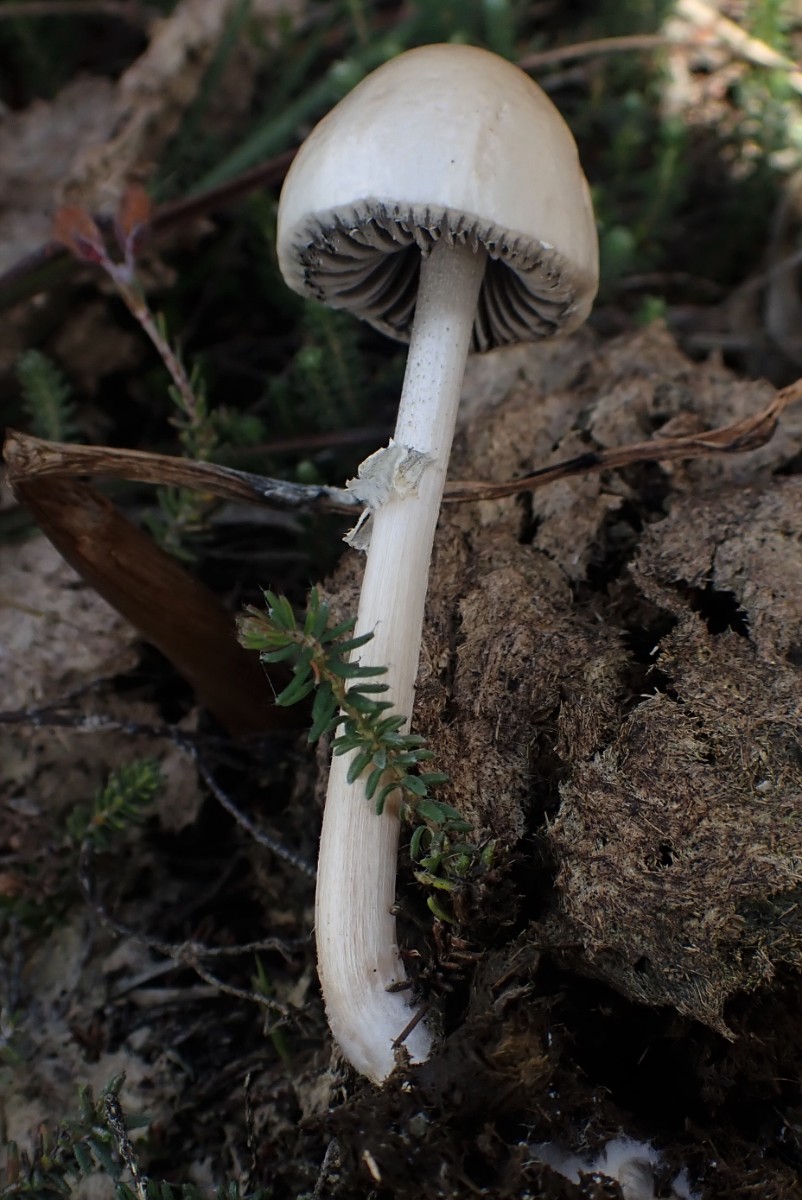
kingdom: Fungi
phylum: Basidiomycota
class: Agaricomycetes
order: Agaricales
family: Bolbitiaceae
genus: Panaeolus
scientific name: Panaeolus semiovatus
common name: ring-glanshat
